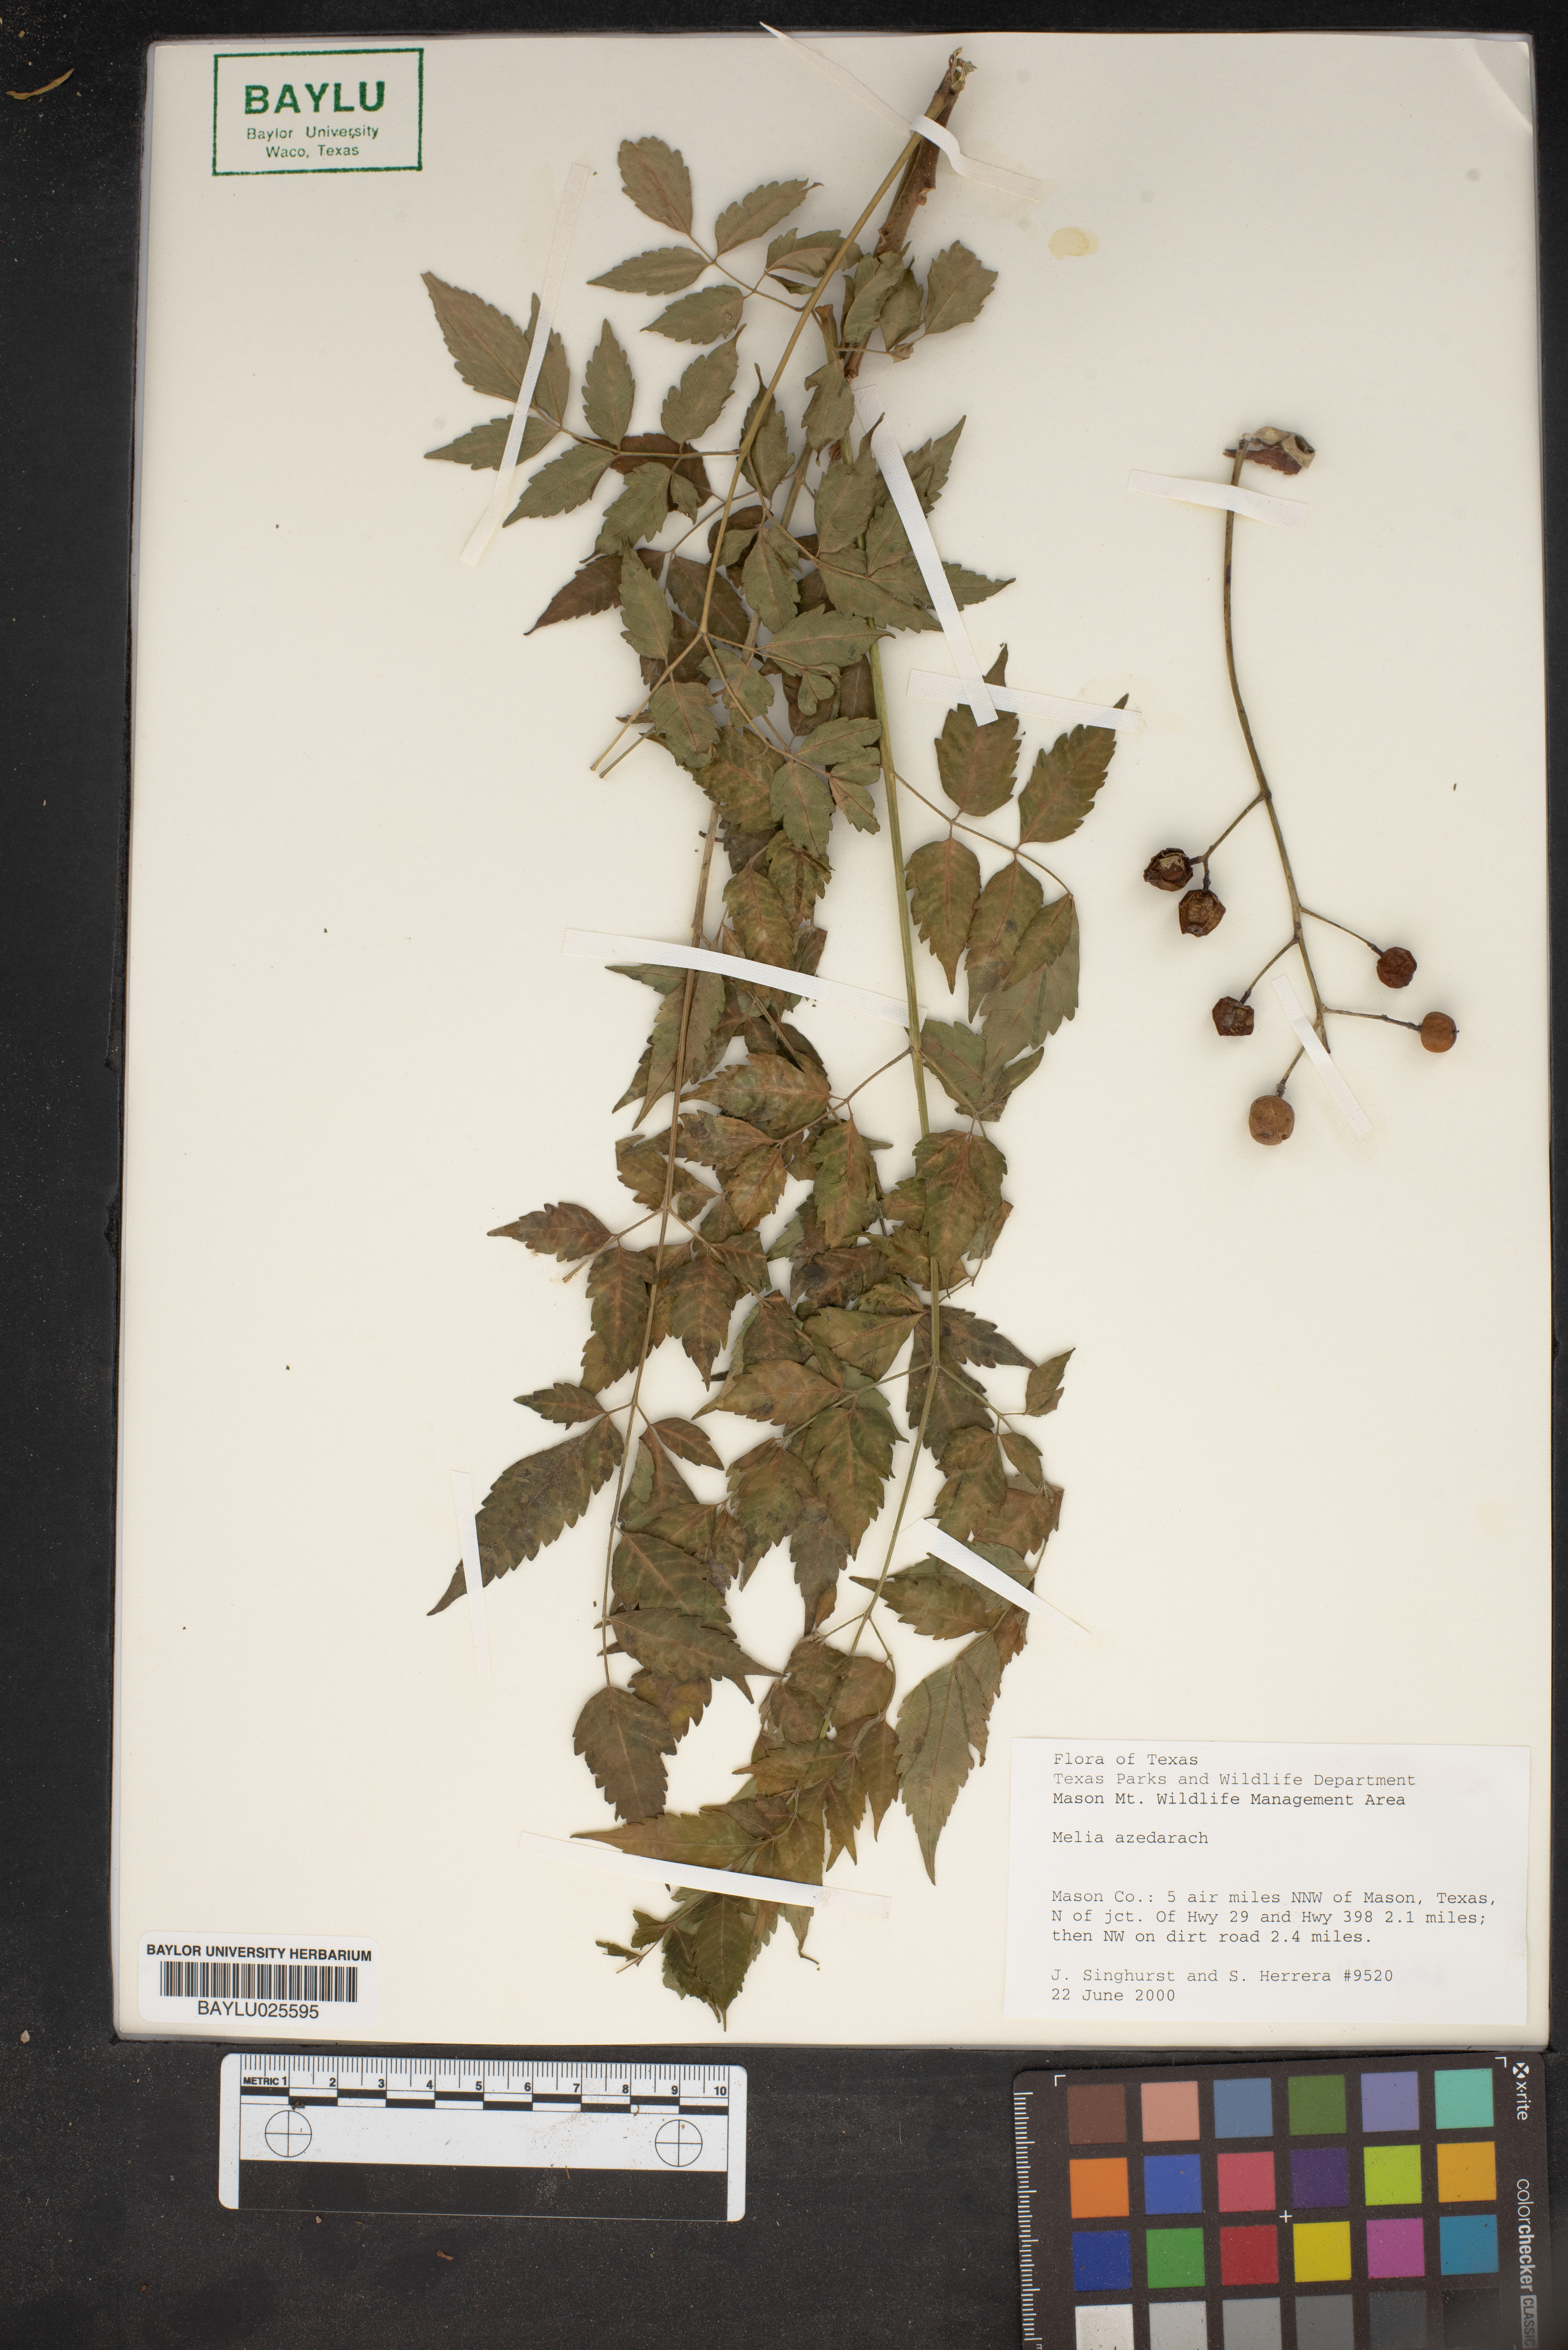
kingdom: Plantae
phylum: Tracheophyta
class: Magnoliopsida
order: Sapindales
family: Meliaceae
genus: Melia
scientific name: Melia azedarach
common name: Chinaberrytree
